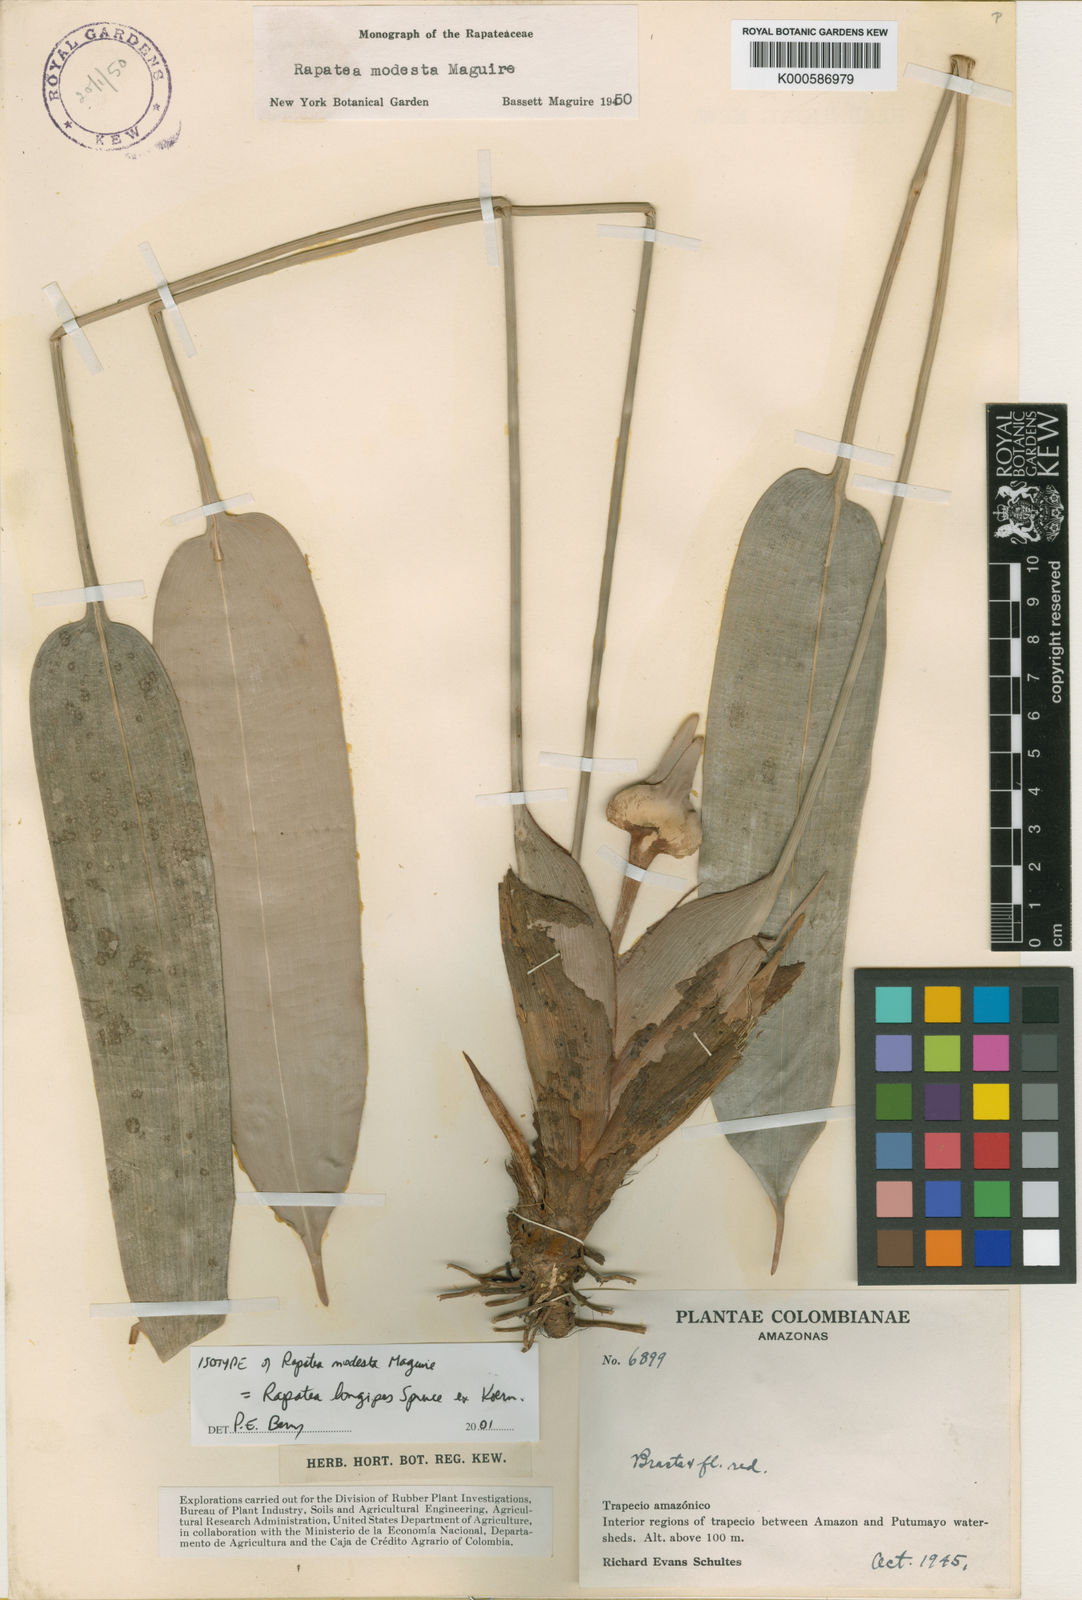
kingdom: Plantae
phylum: Tracheophyta
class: Liliopsida
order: Poales
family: Rapateaceae
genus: Rapatea
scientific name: Rapatea
